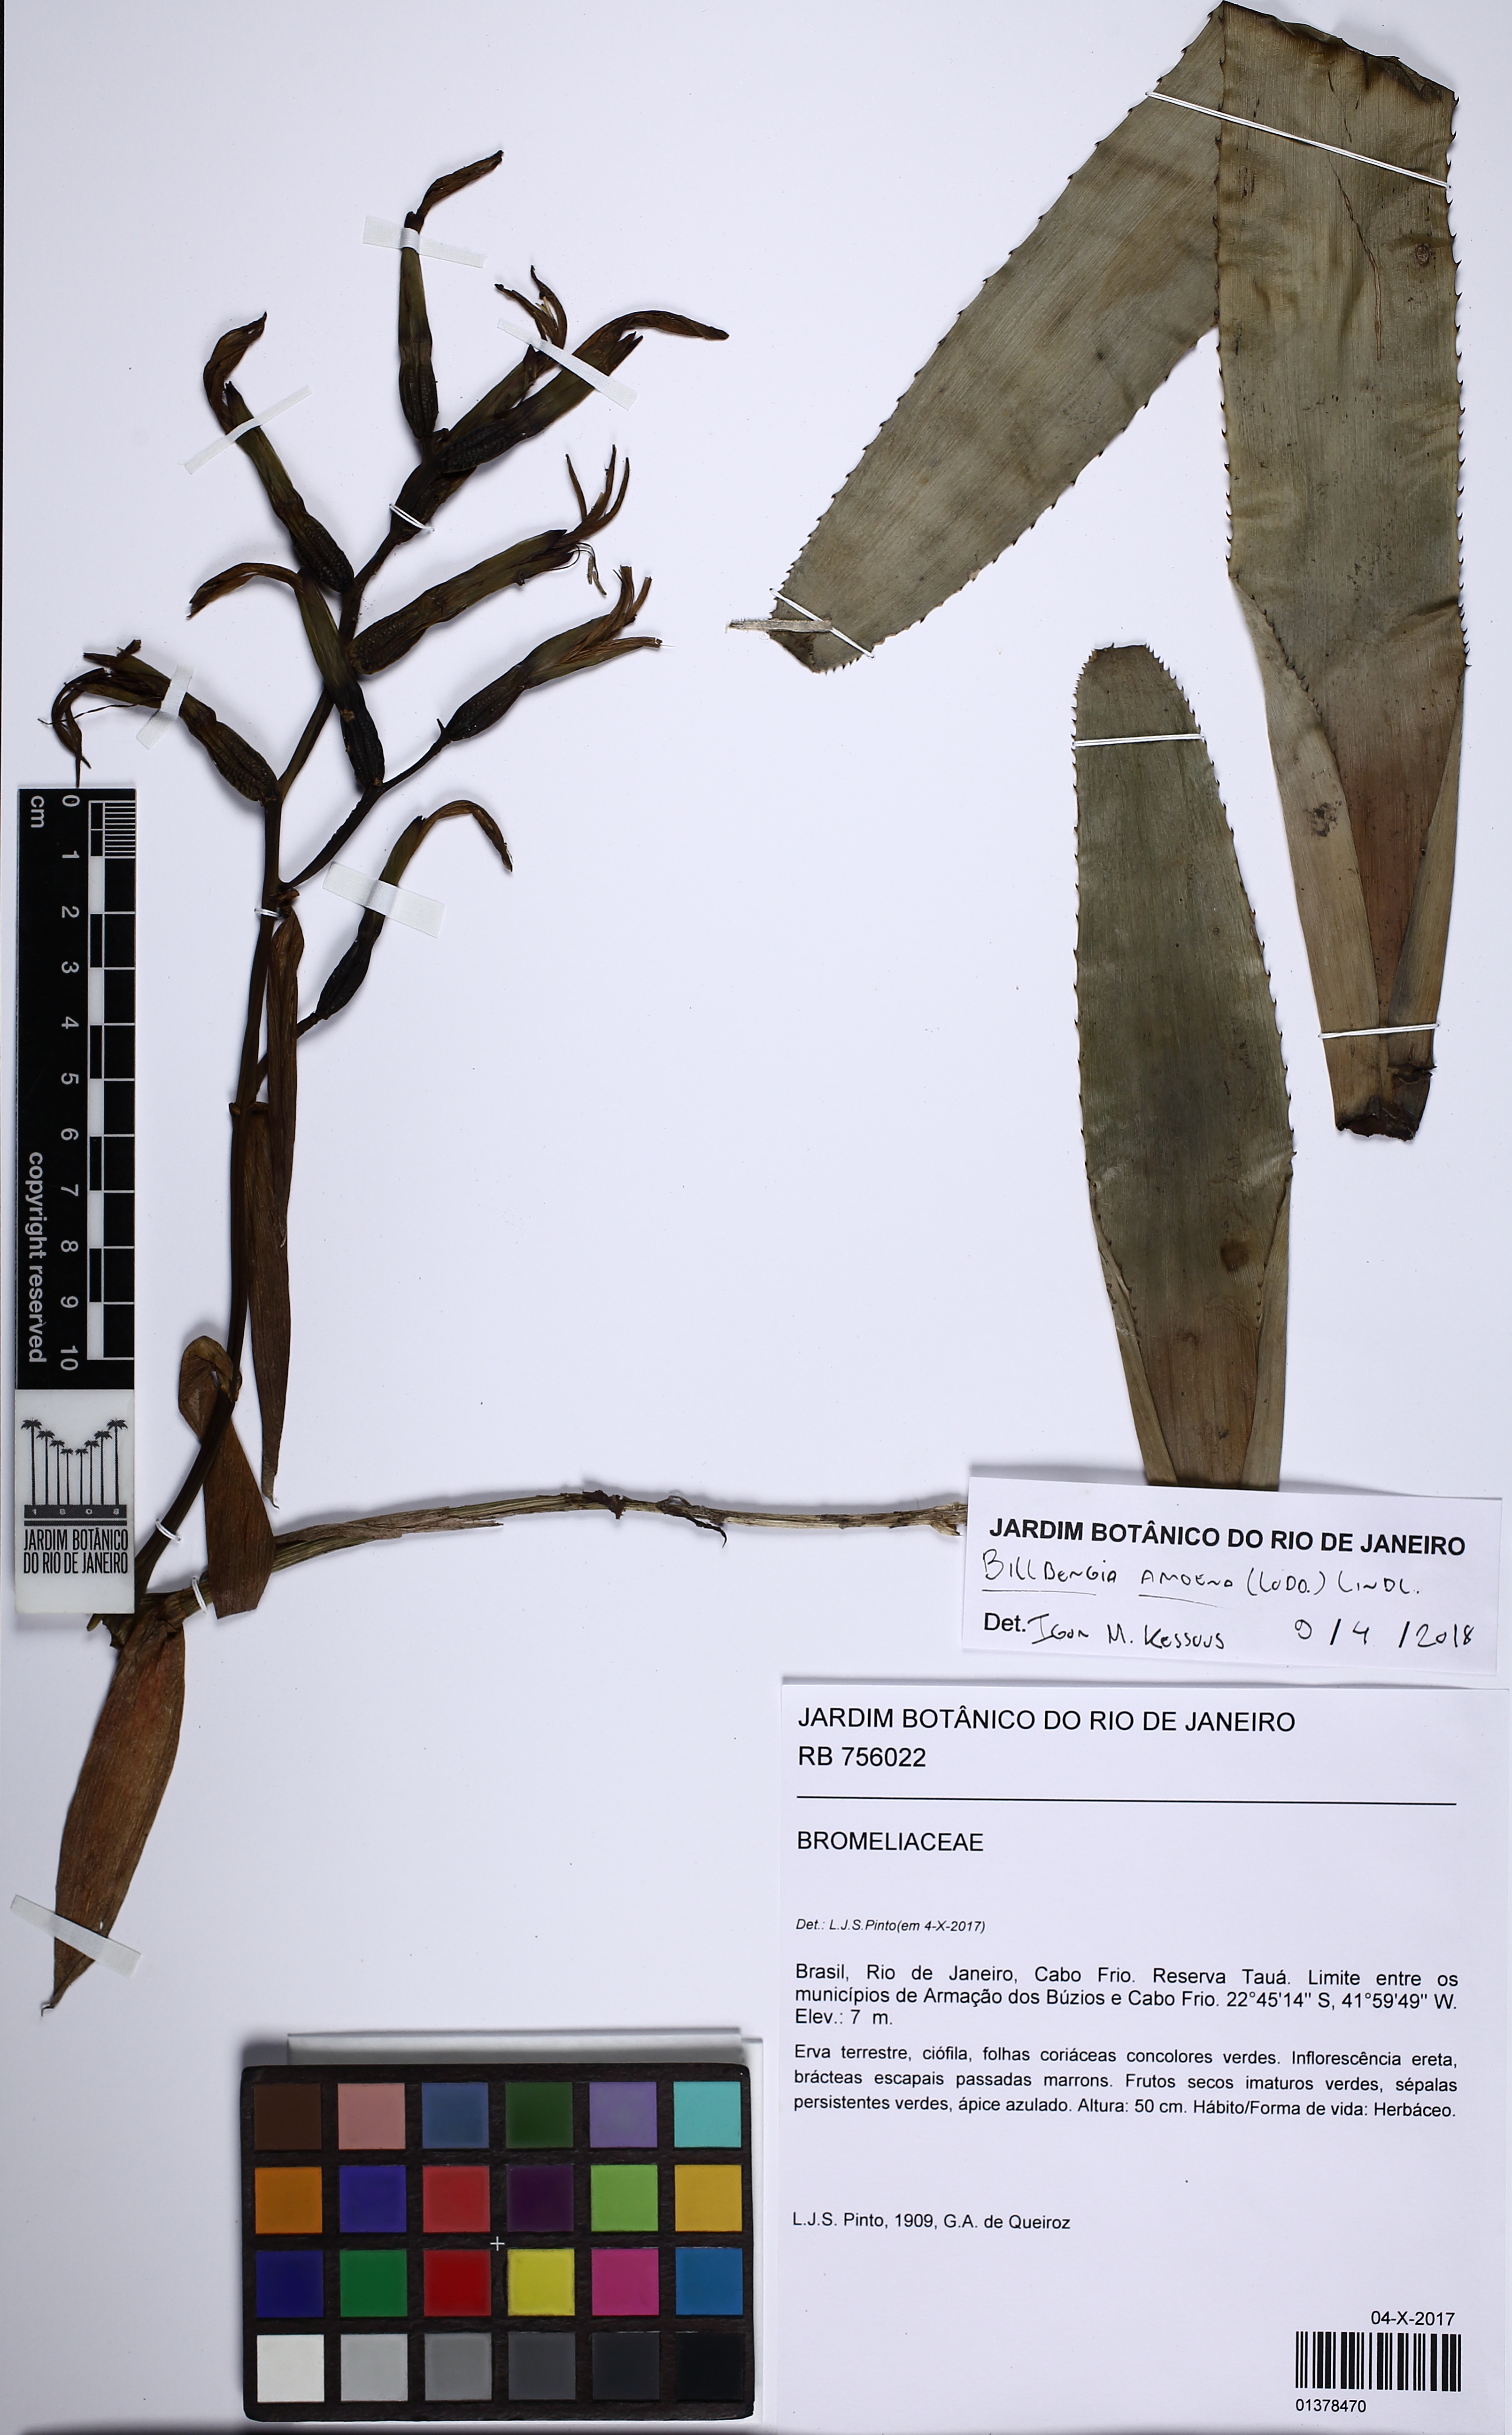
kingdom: Plantae
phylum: Tracheophyta
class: Liliopsida
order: Poales
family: Bromeliaceae
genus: Billbergia
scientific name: Billbergia amoena
